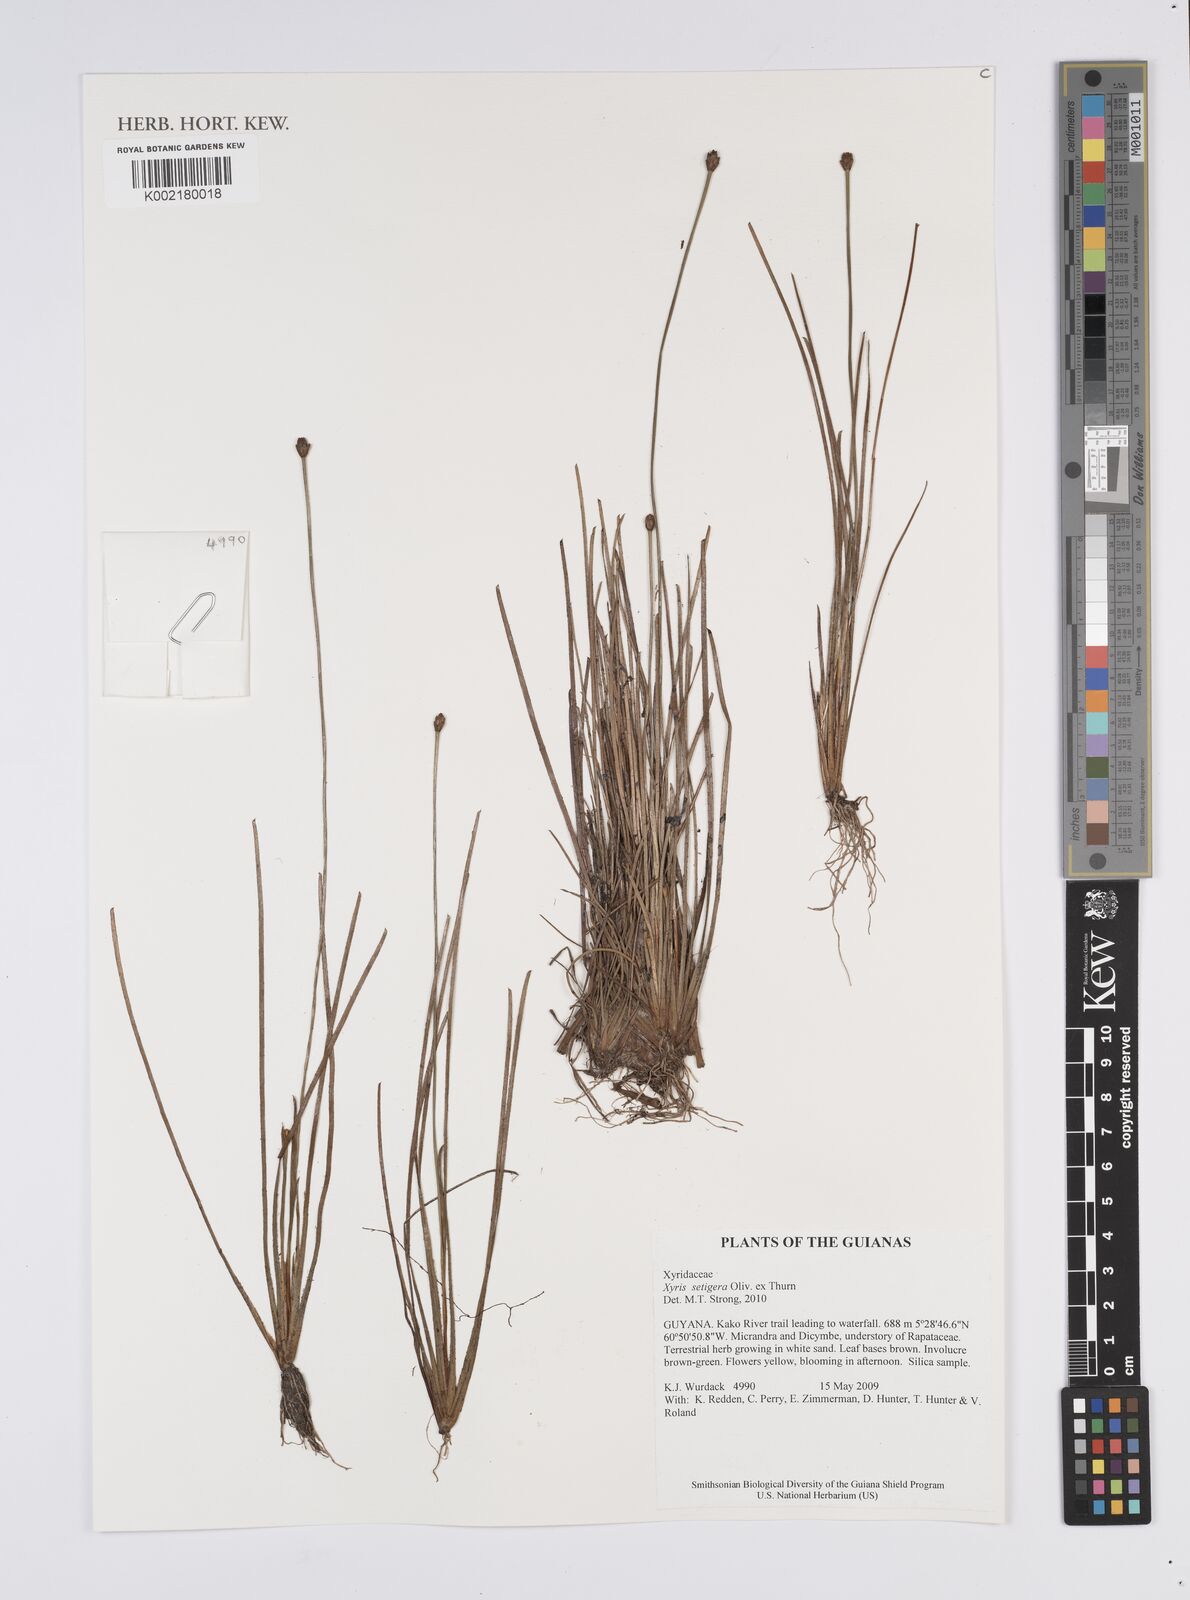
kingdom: Plantae
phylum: Tracheophyta
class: Liliopsida
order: Poales
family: Xyridaceae
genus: Xyris
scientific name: Xyris setigera
